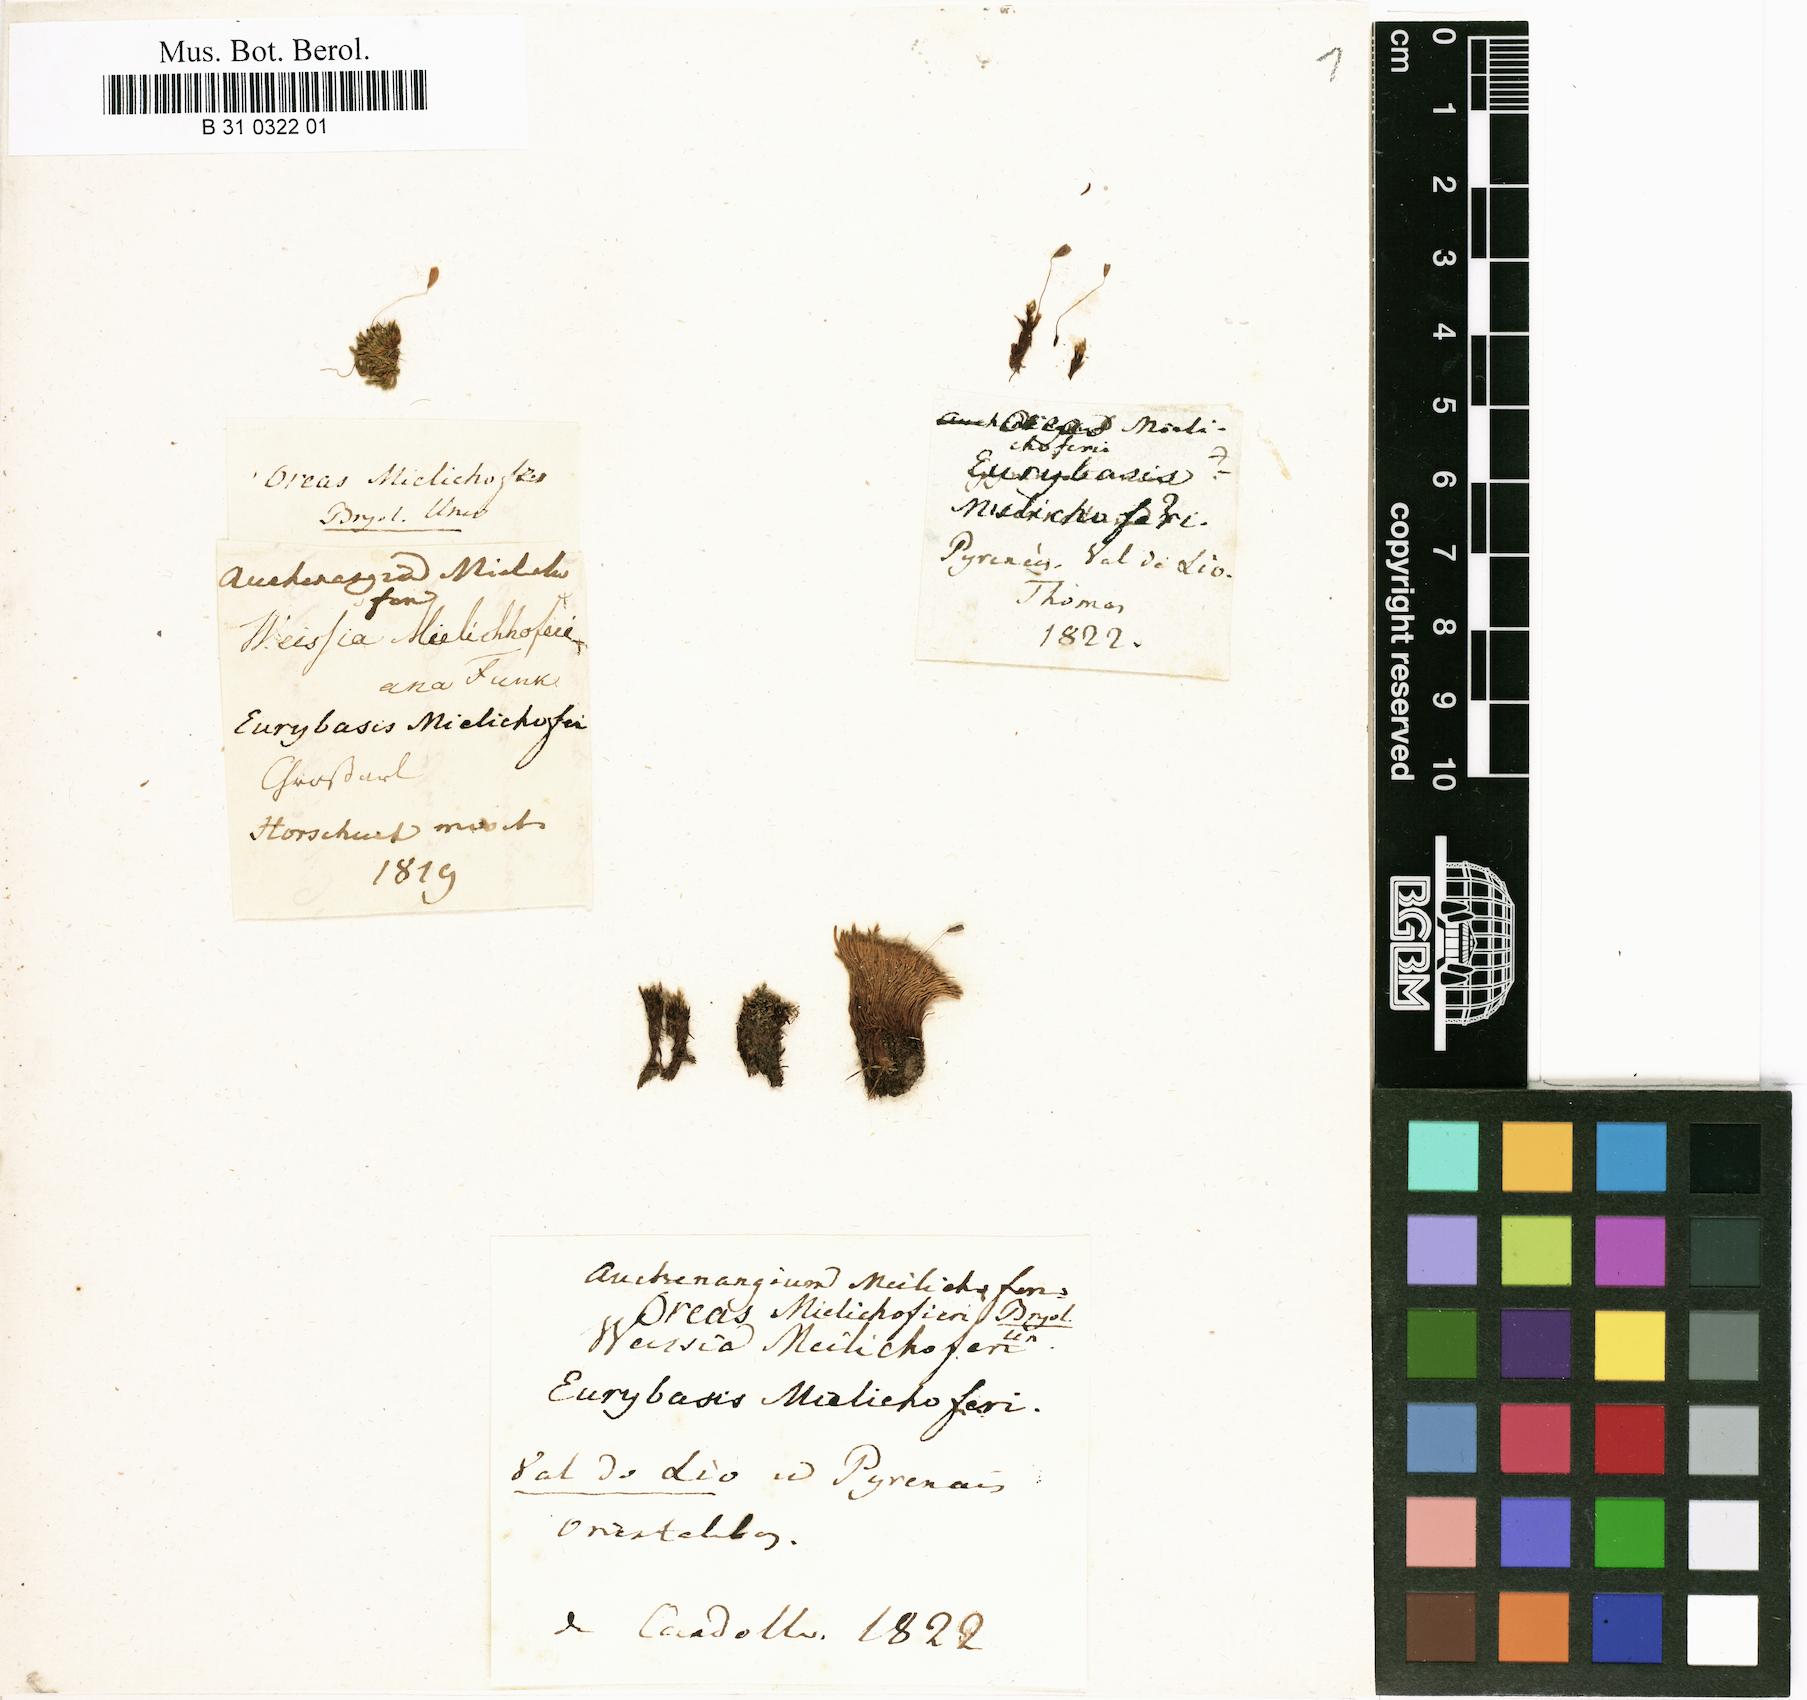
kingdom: Plantae
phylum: Bryophyta
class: Bryopsida
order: Bryales
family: Mniaceae
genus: Mielichhoferia
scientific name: Mielichhoferia mielichhoferiana
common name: Alpine copper-moss
